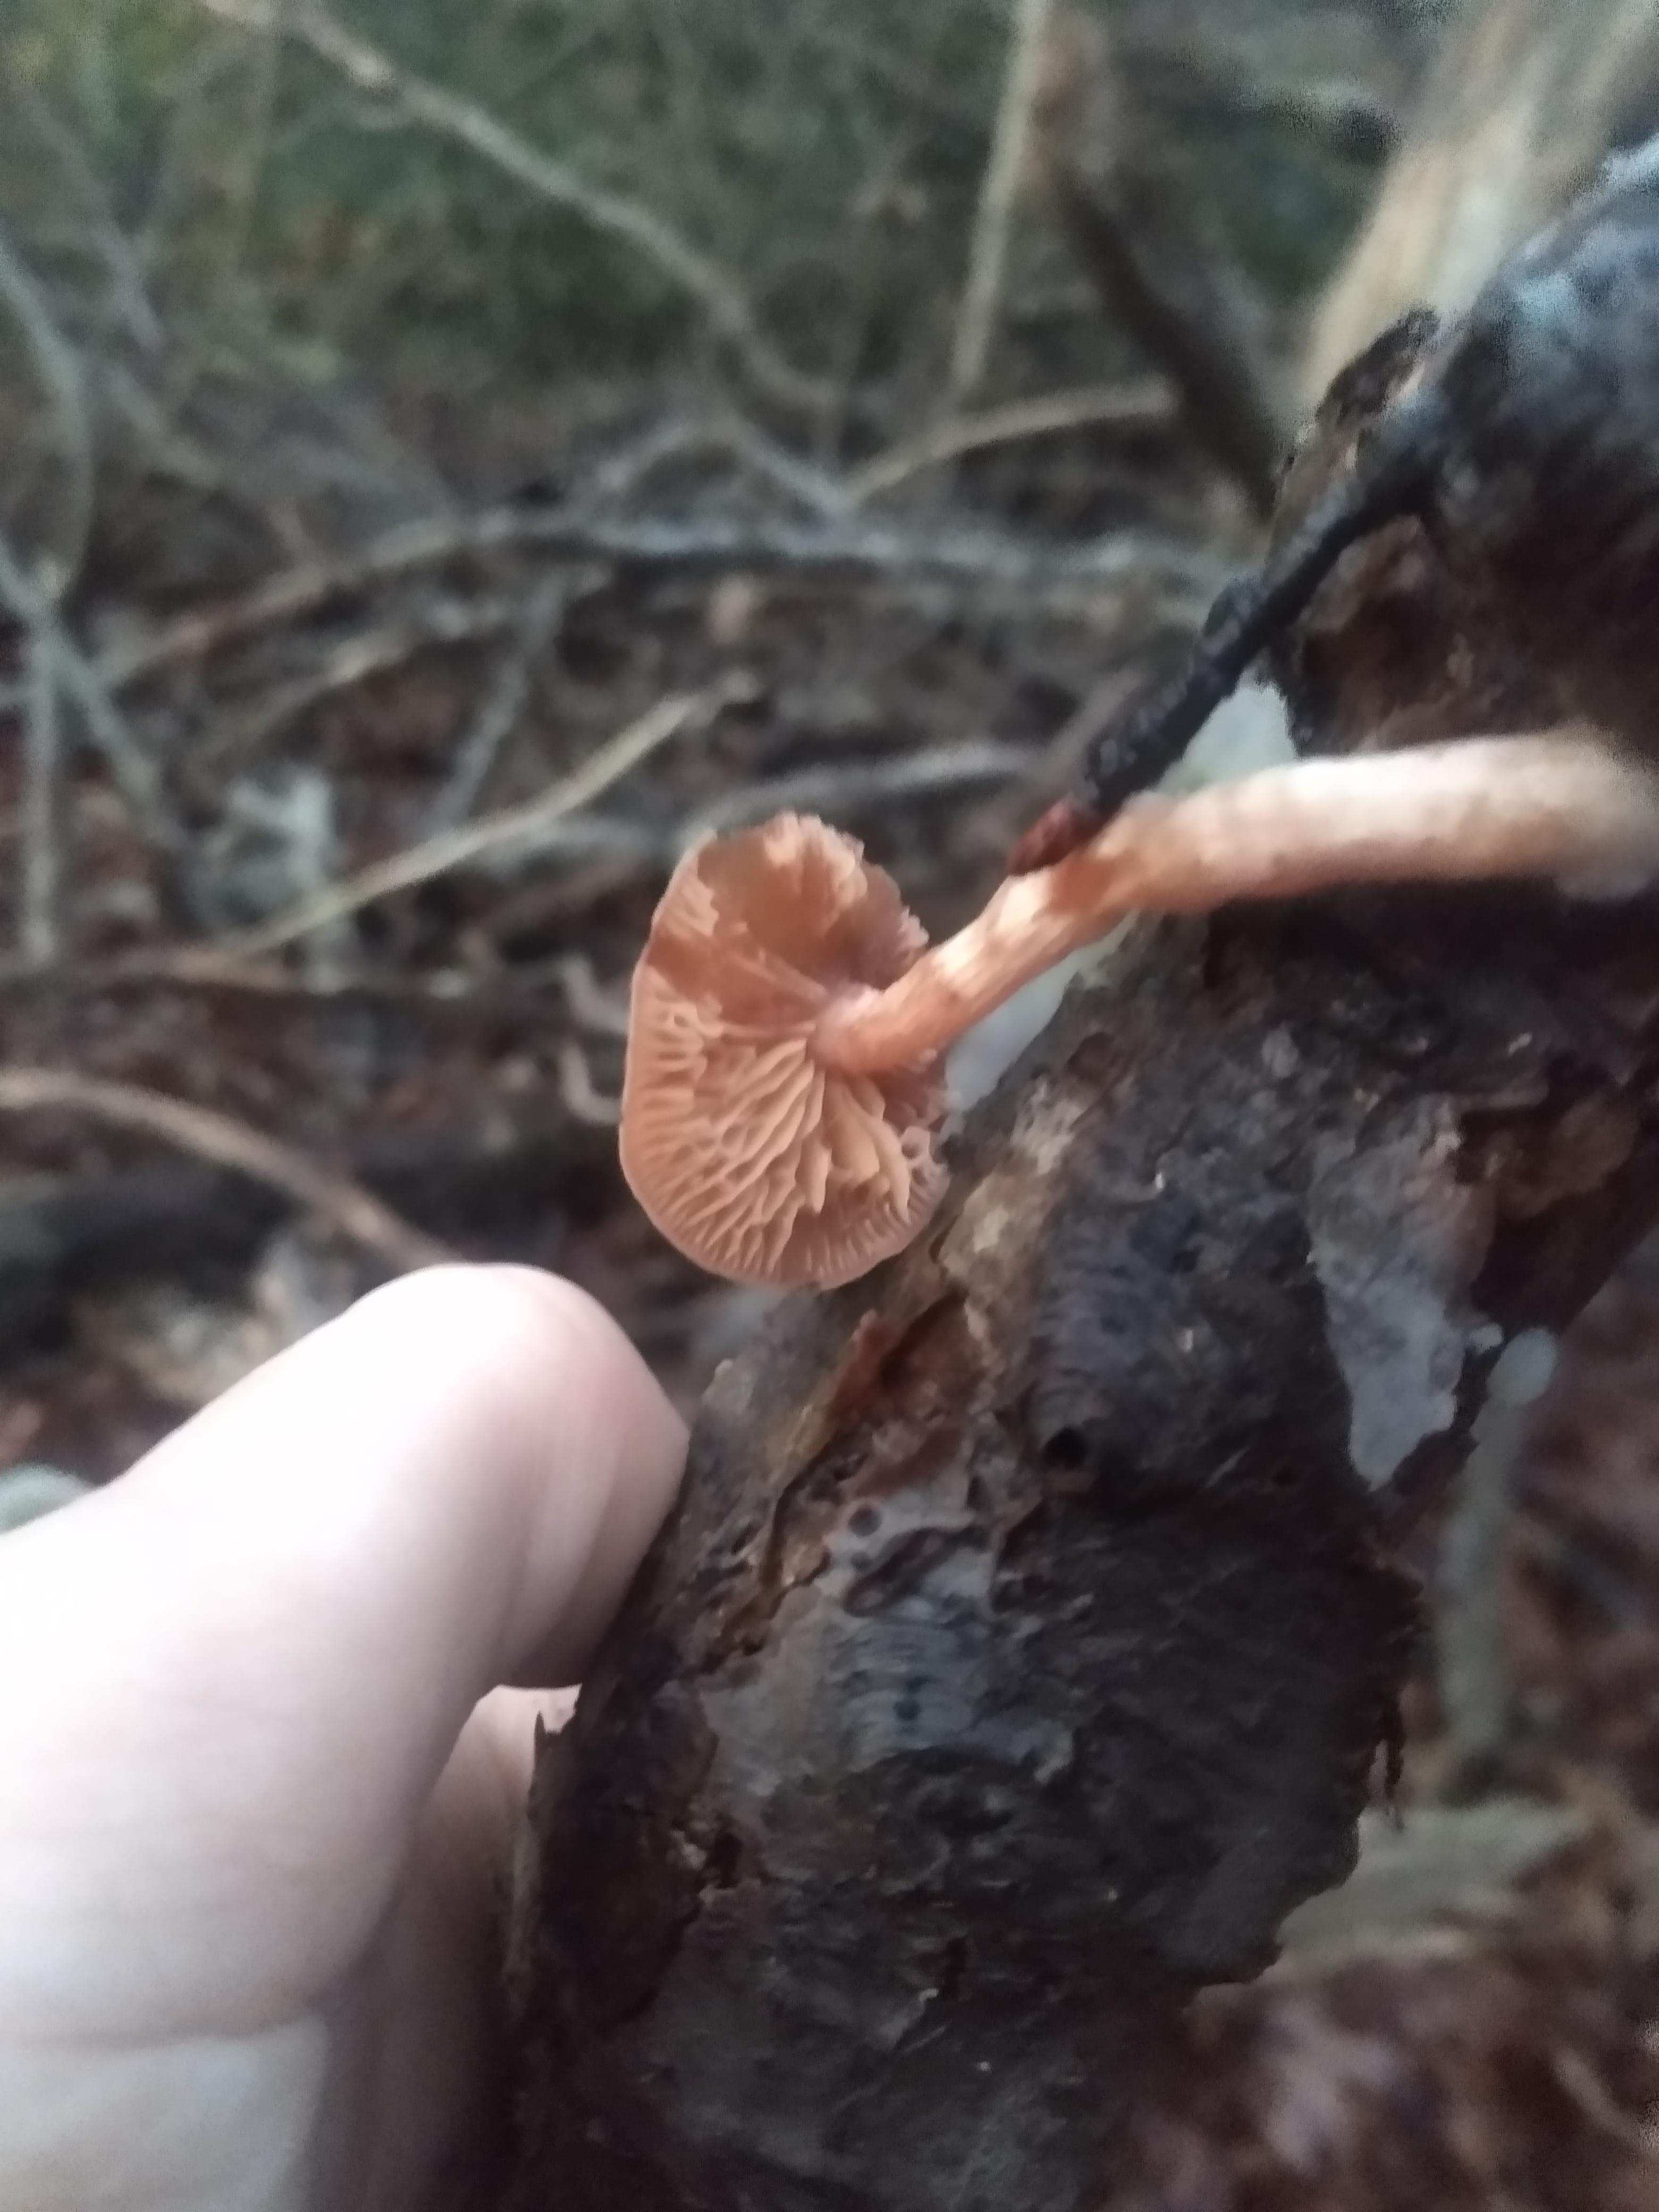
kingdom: Fungi
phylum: Basidiomycota
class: Agaricomycetes
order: Agaricales
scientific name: Agaricales
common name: champignonordenen
